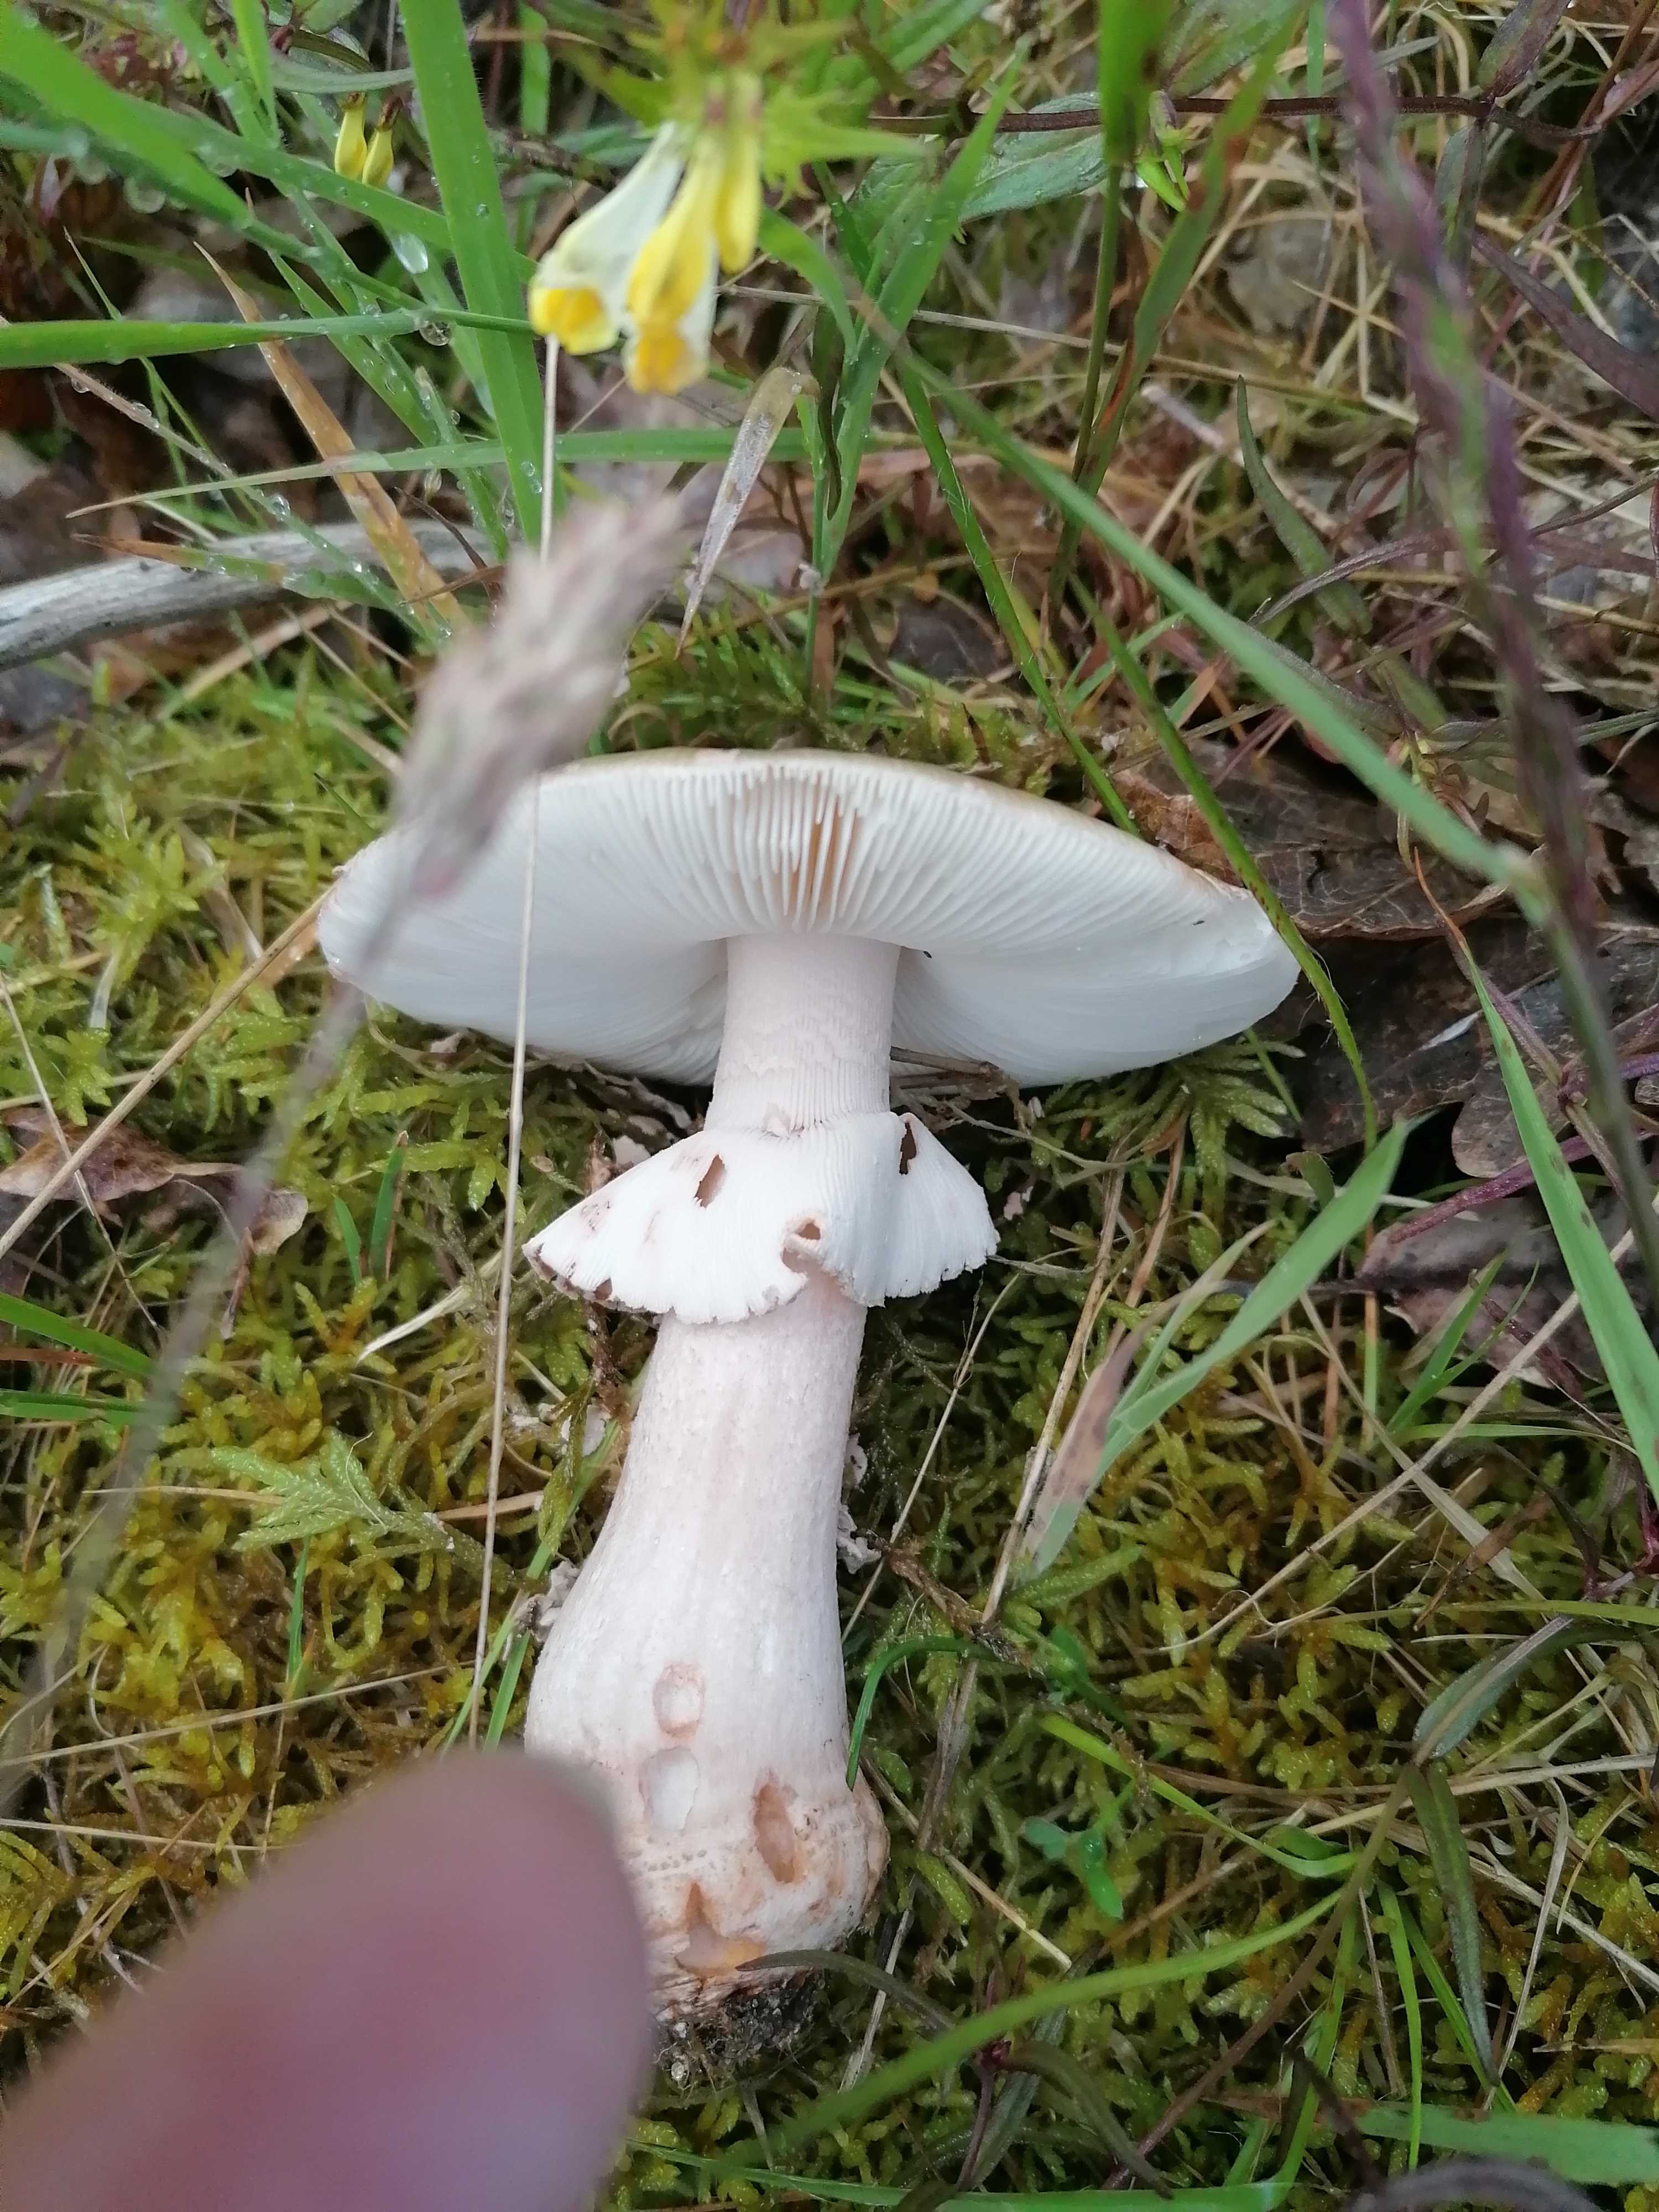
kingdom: Fungi
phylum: Basidiomycota
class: Agaricomycetes
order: Agaricales
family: Amanitaceae
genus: Amanita
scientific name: Amanita rubescens
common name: rødmende fluesvamp
